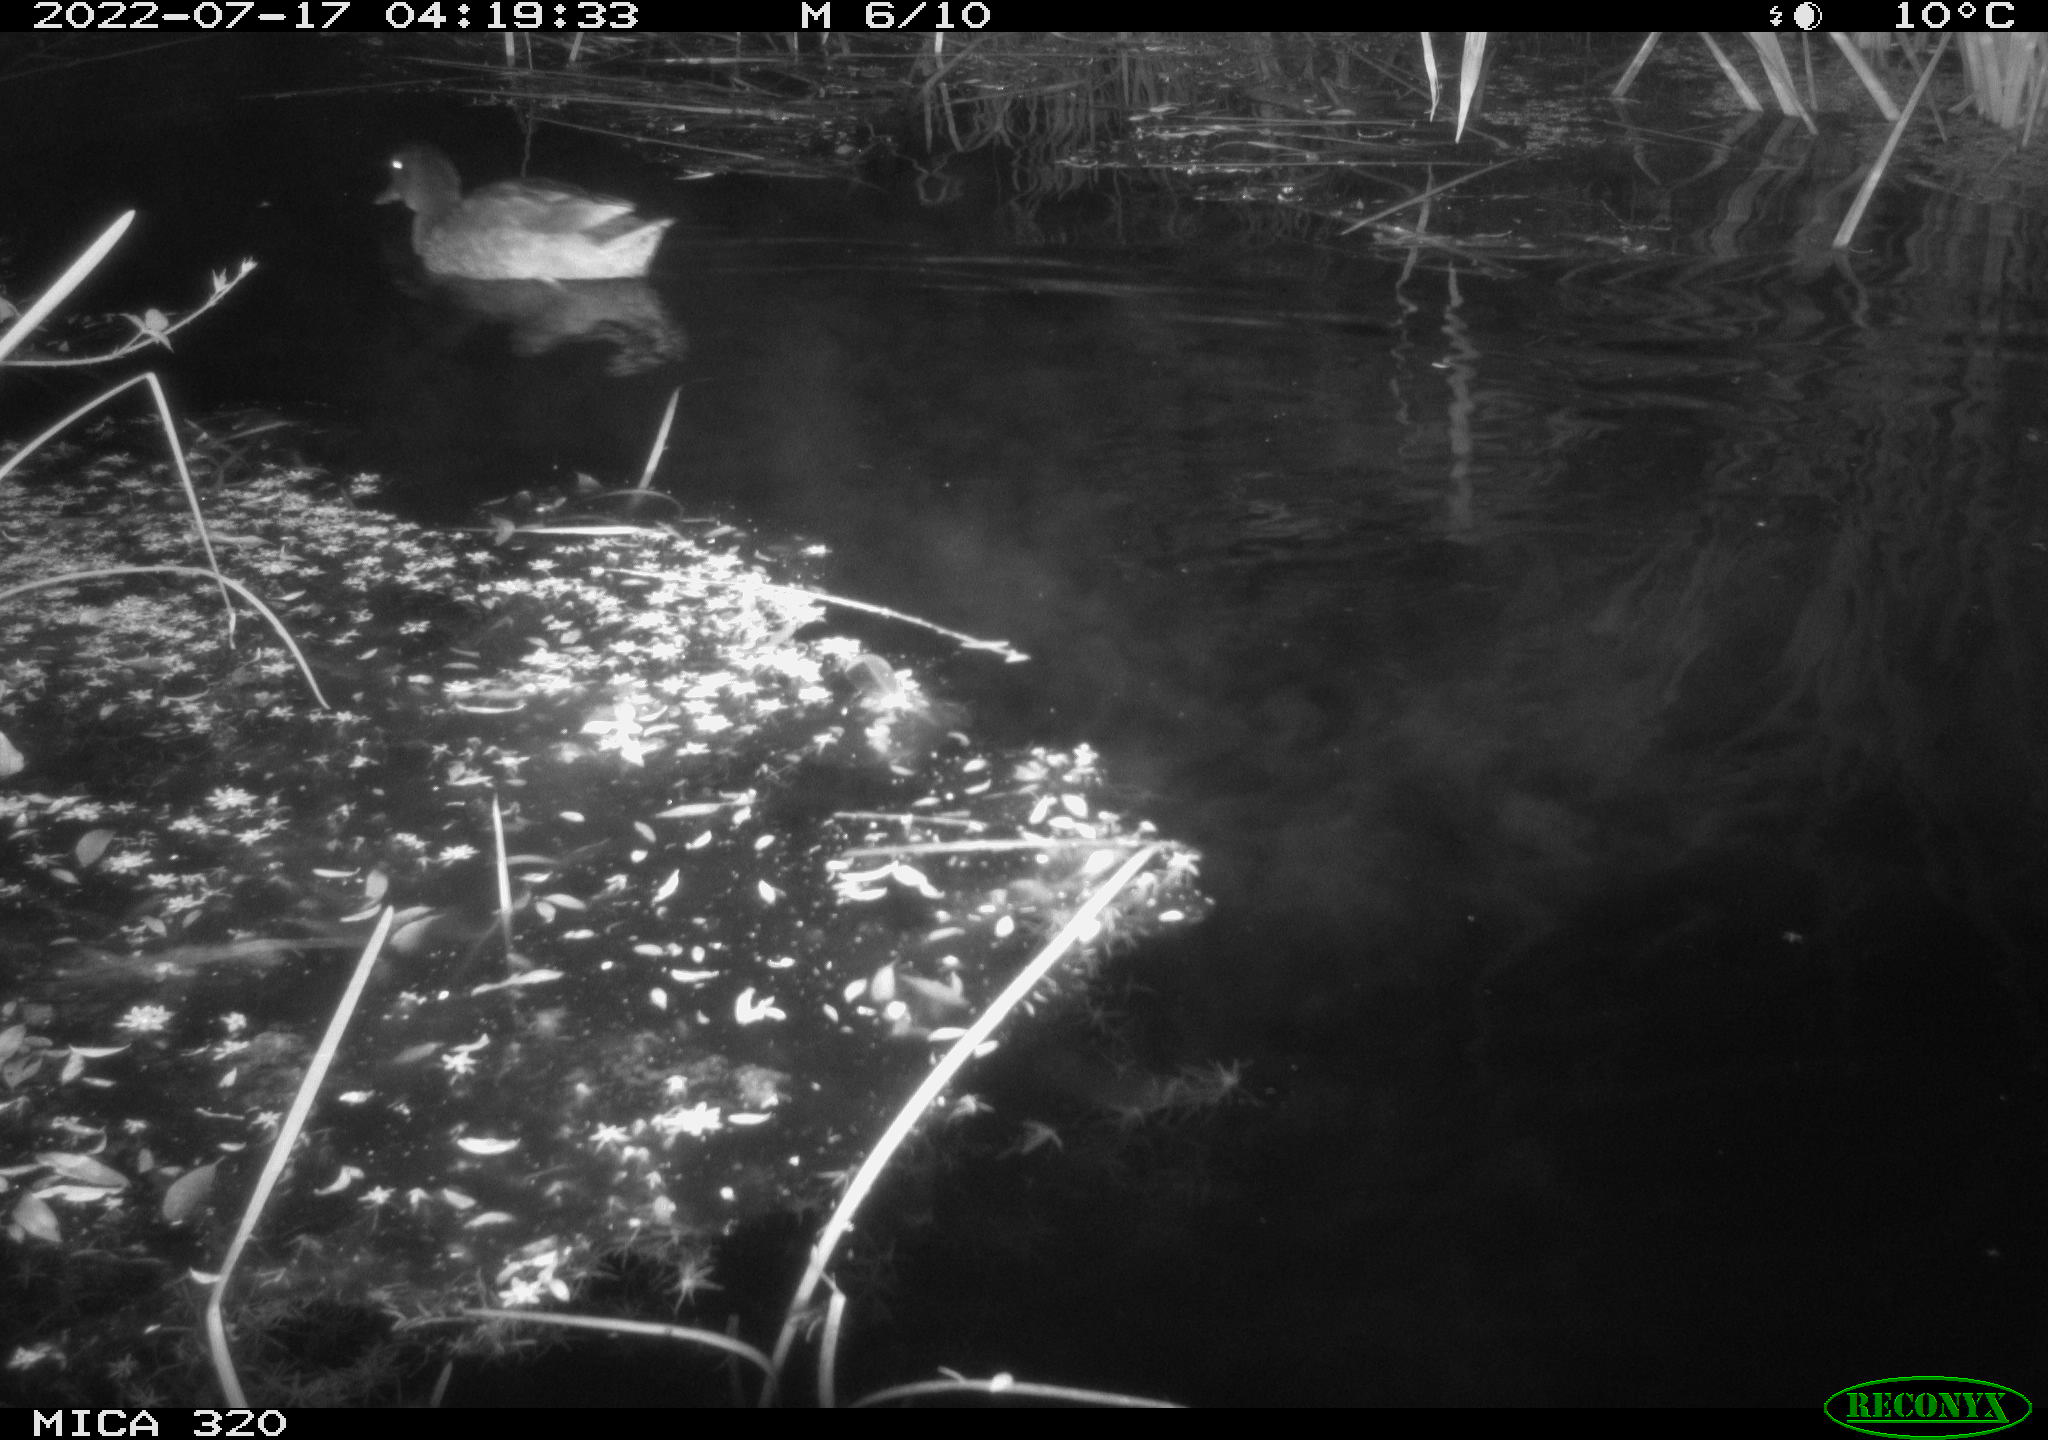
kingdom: Animalia
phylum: Chordata
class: Aves
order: Anseriformes
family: Anatidae
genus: Anas
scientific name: Anas platyrhynchos
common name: Mallard
